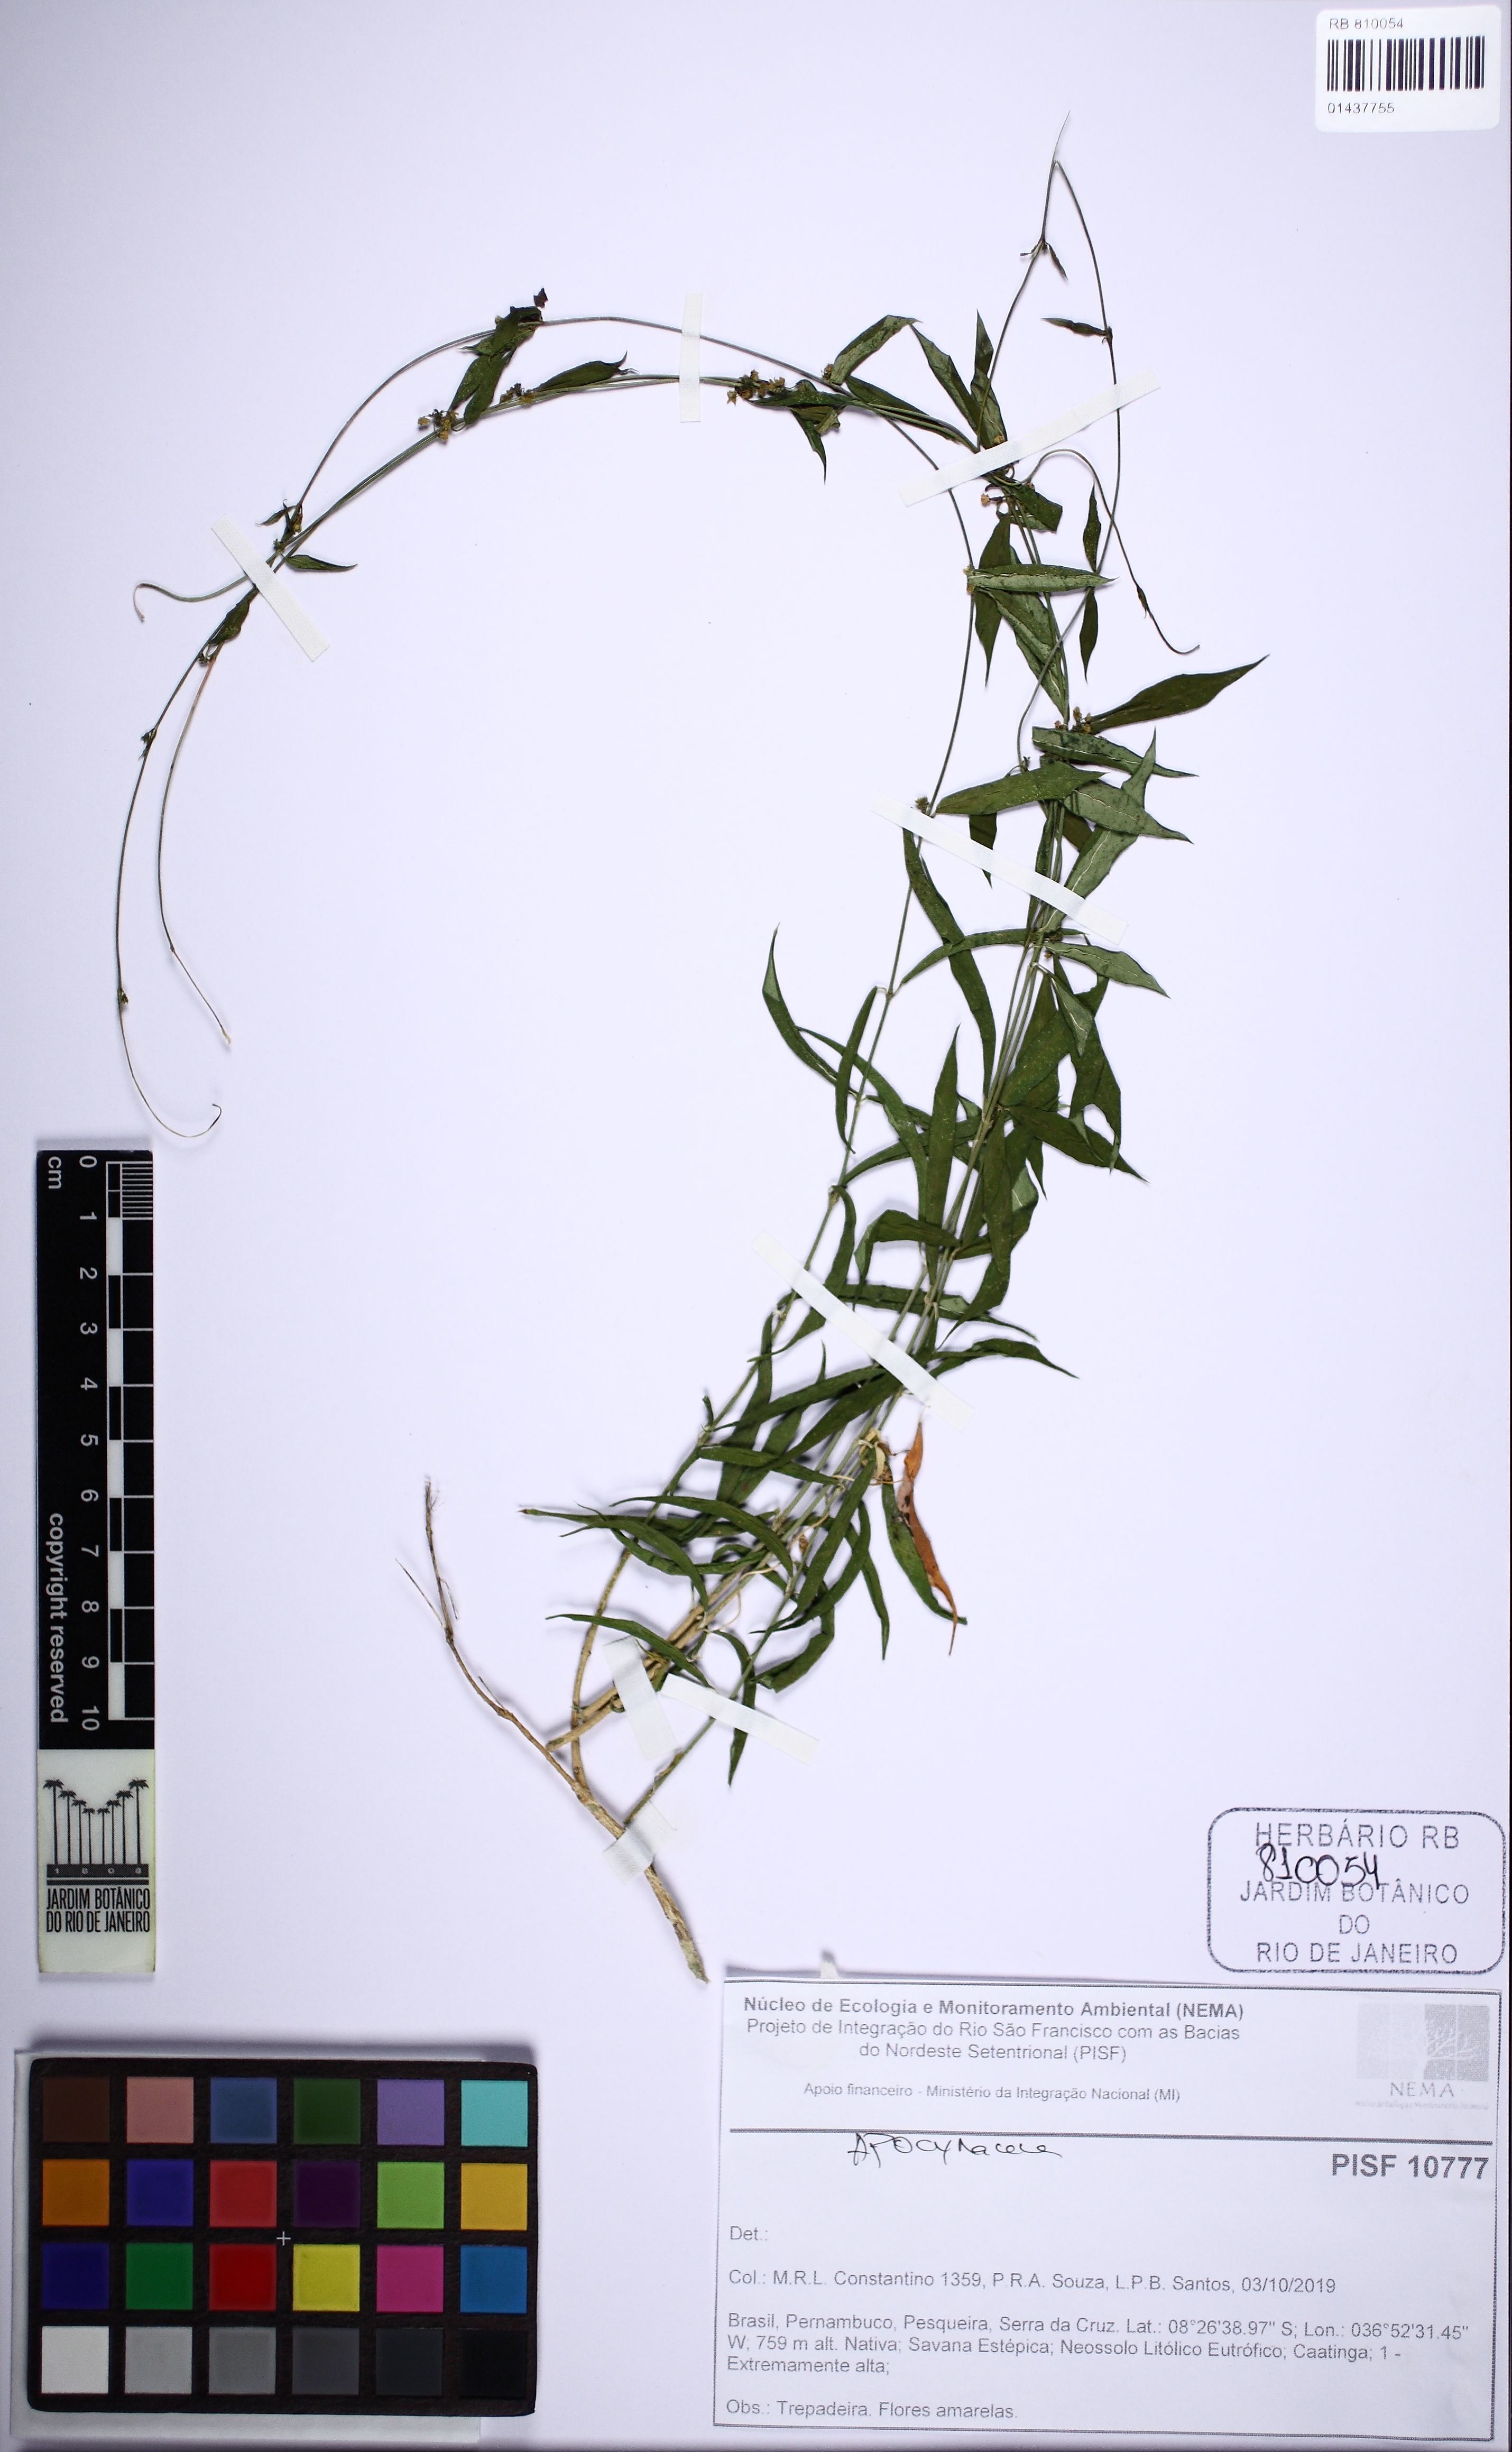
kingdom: Plantae
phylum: Tracheophyta
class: Magnoliopsida
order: Gentianales
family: Apocynaceae
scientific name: Apocynaceae
